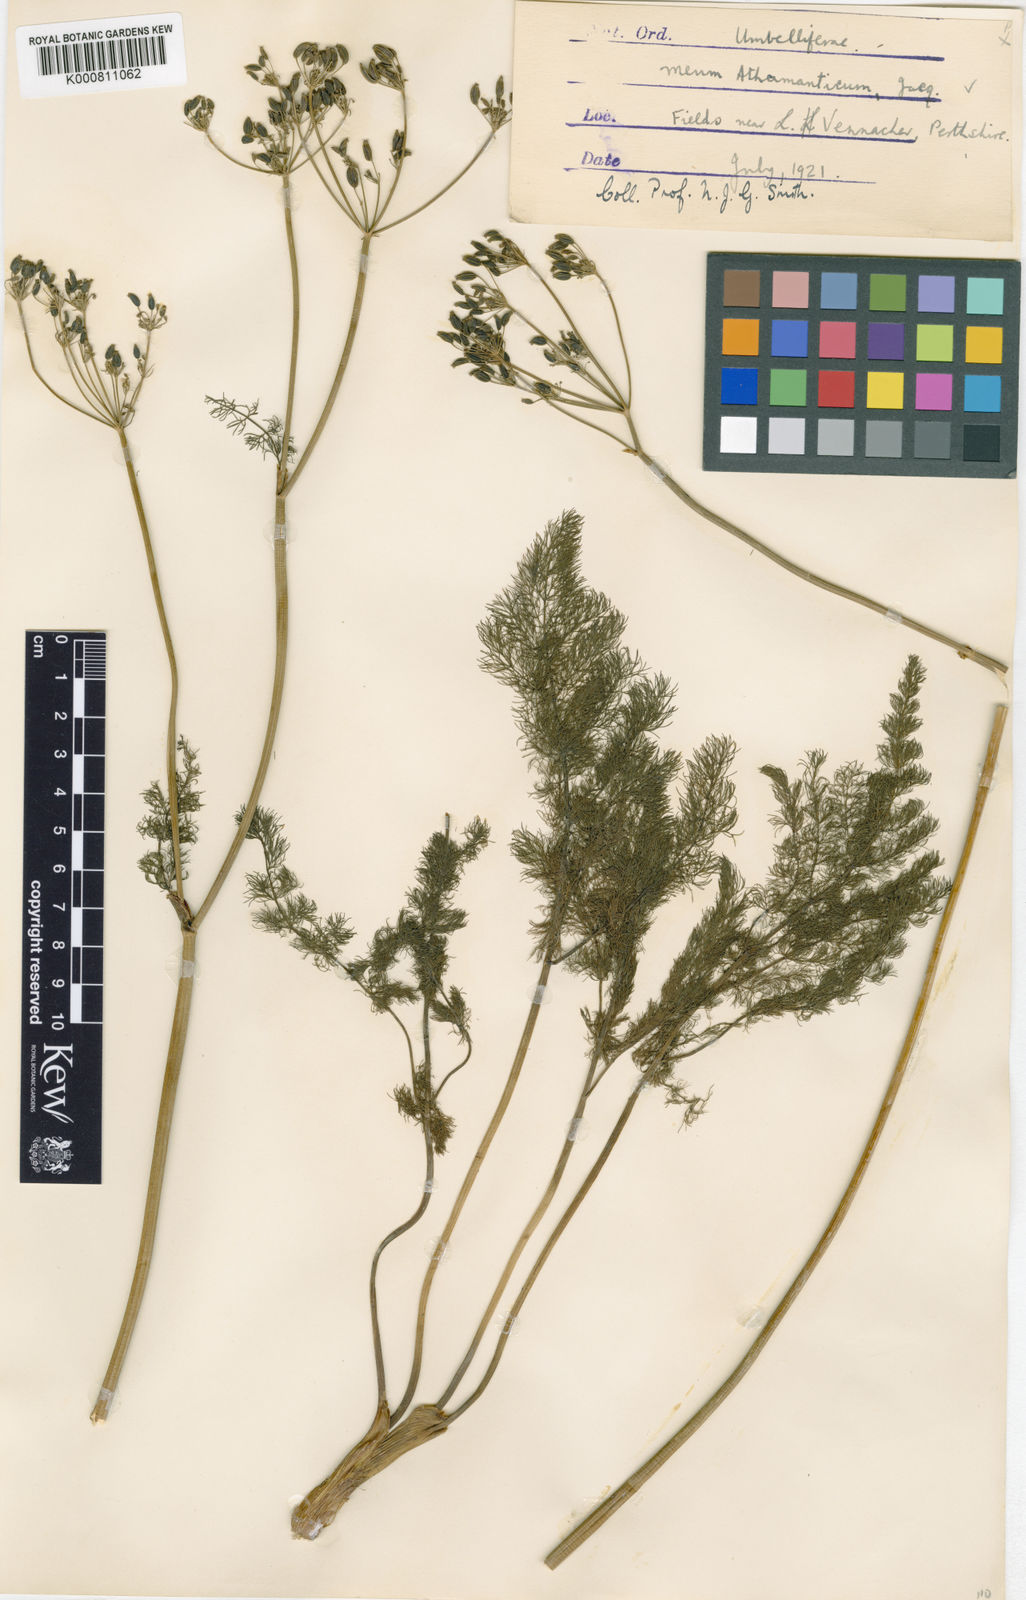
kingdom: Plantae
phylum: Tracheophyta
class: Magnoliopsida
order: Apiales
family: Apiaceae
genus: Meum
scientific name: Meum athamanticum
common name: Spignel
